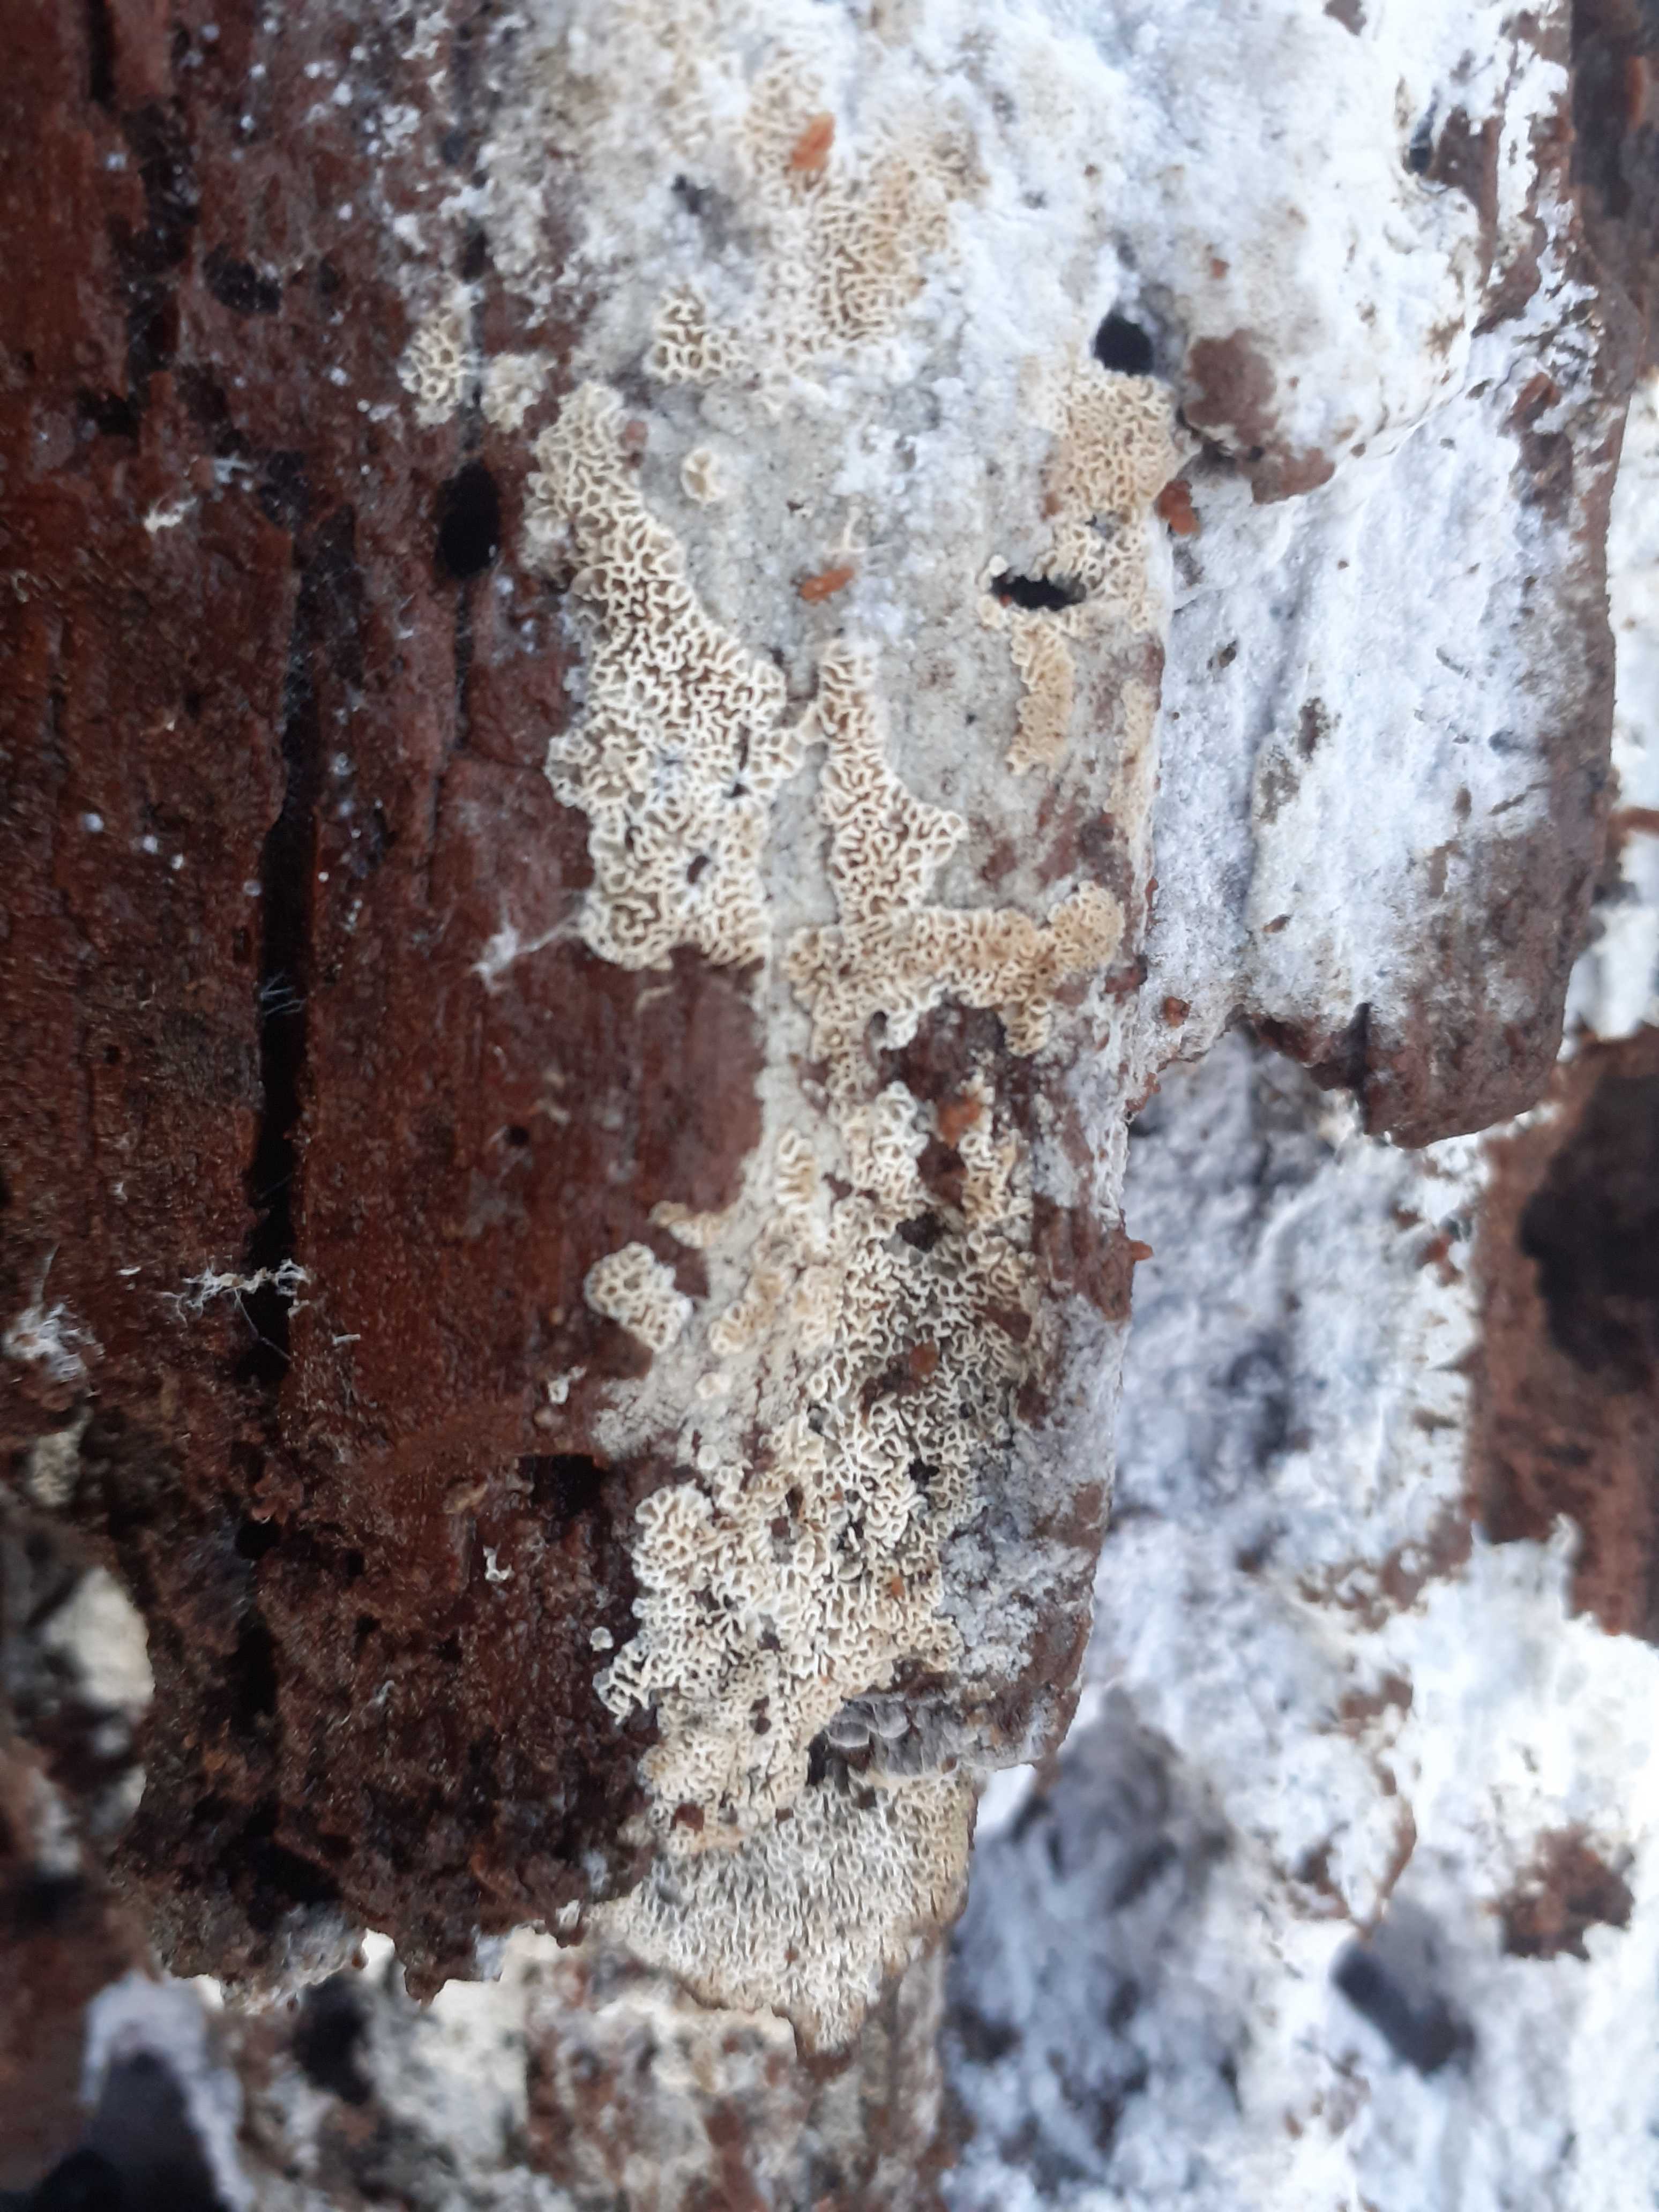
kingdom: Fungi
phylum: Basidiomycota
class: Agaricomycetes
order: Polyporales
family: Irpicaceae
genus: Ceriporia
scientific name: Ceriporia reticulata
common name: netagtig voksporesvamp
